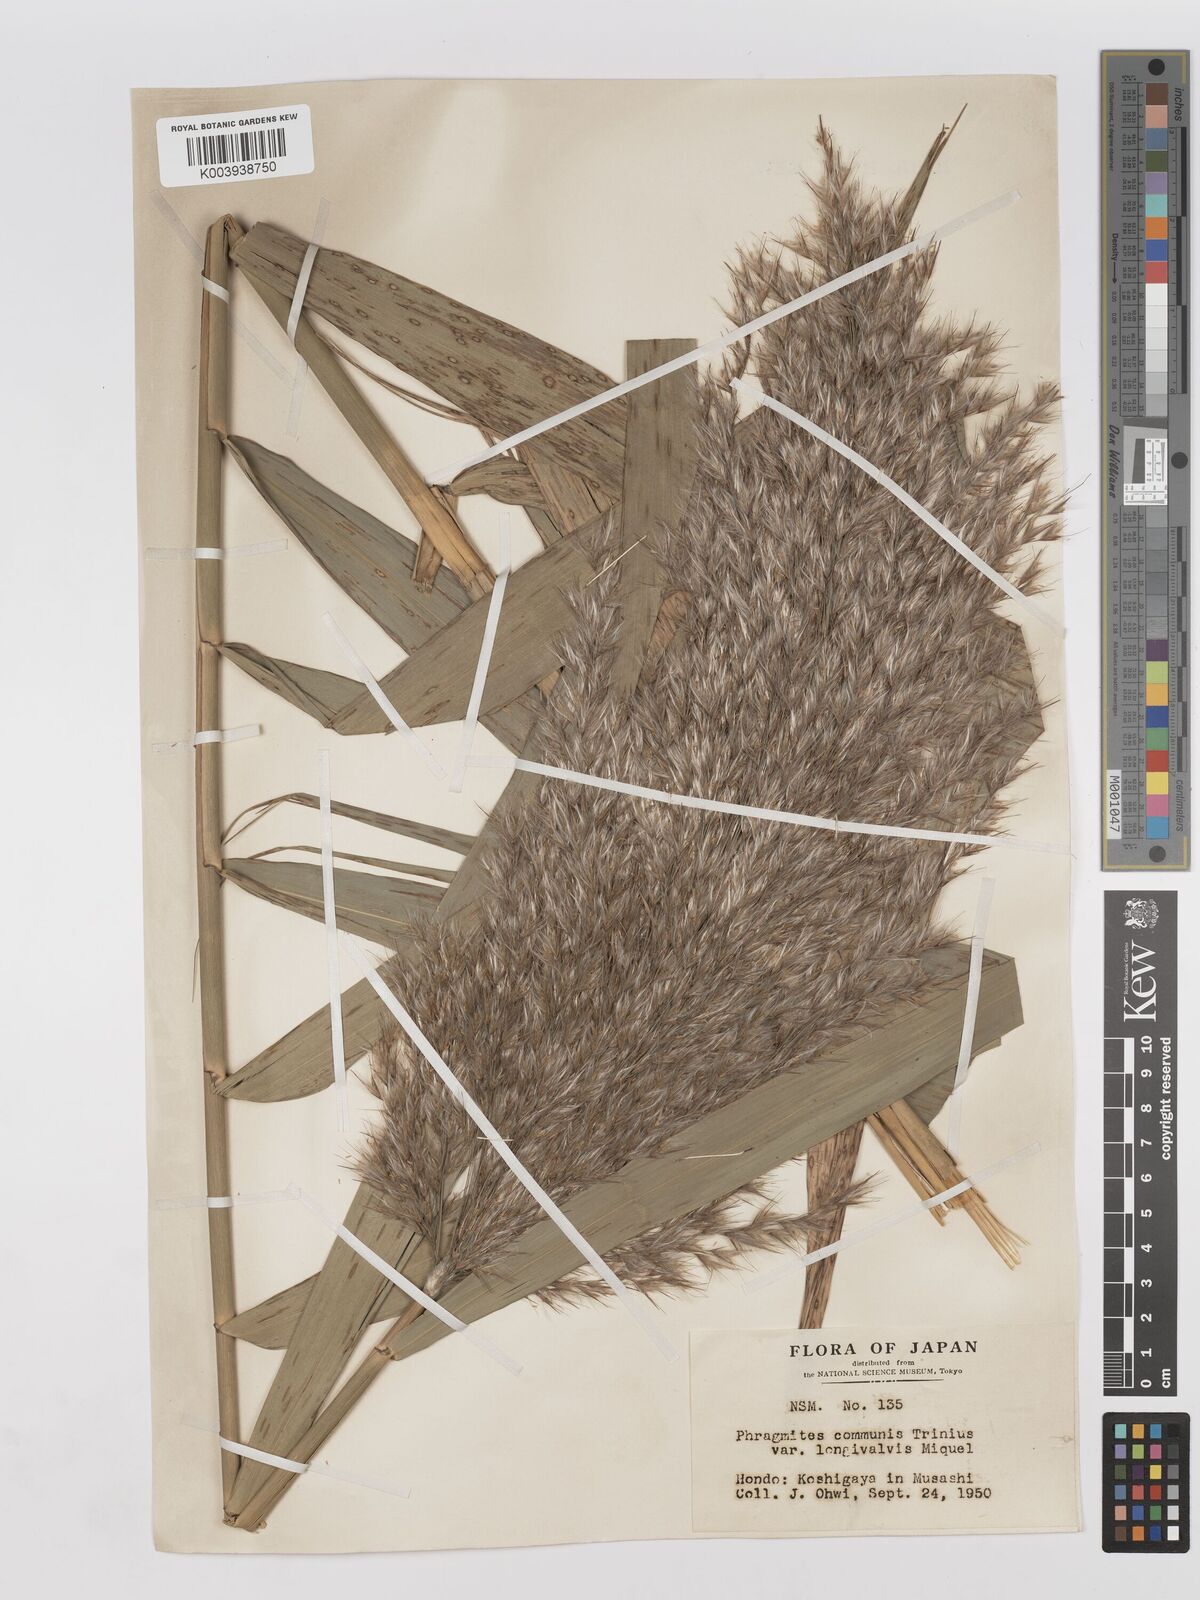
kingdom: Plantae
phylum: Tracheophyta
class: Liliopsida
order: Poales
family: Poaceae
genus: Phragmites
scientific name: Phragmites karka
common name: Tropical reed
